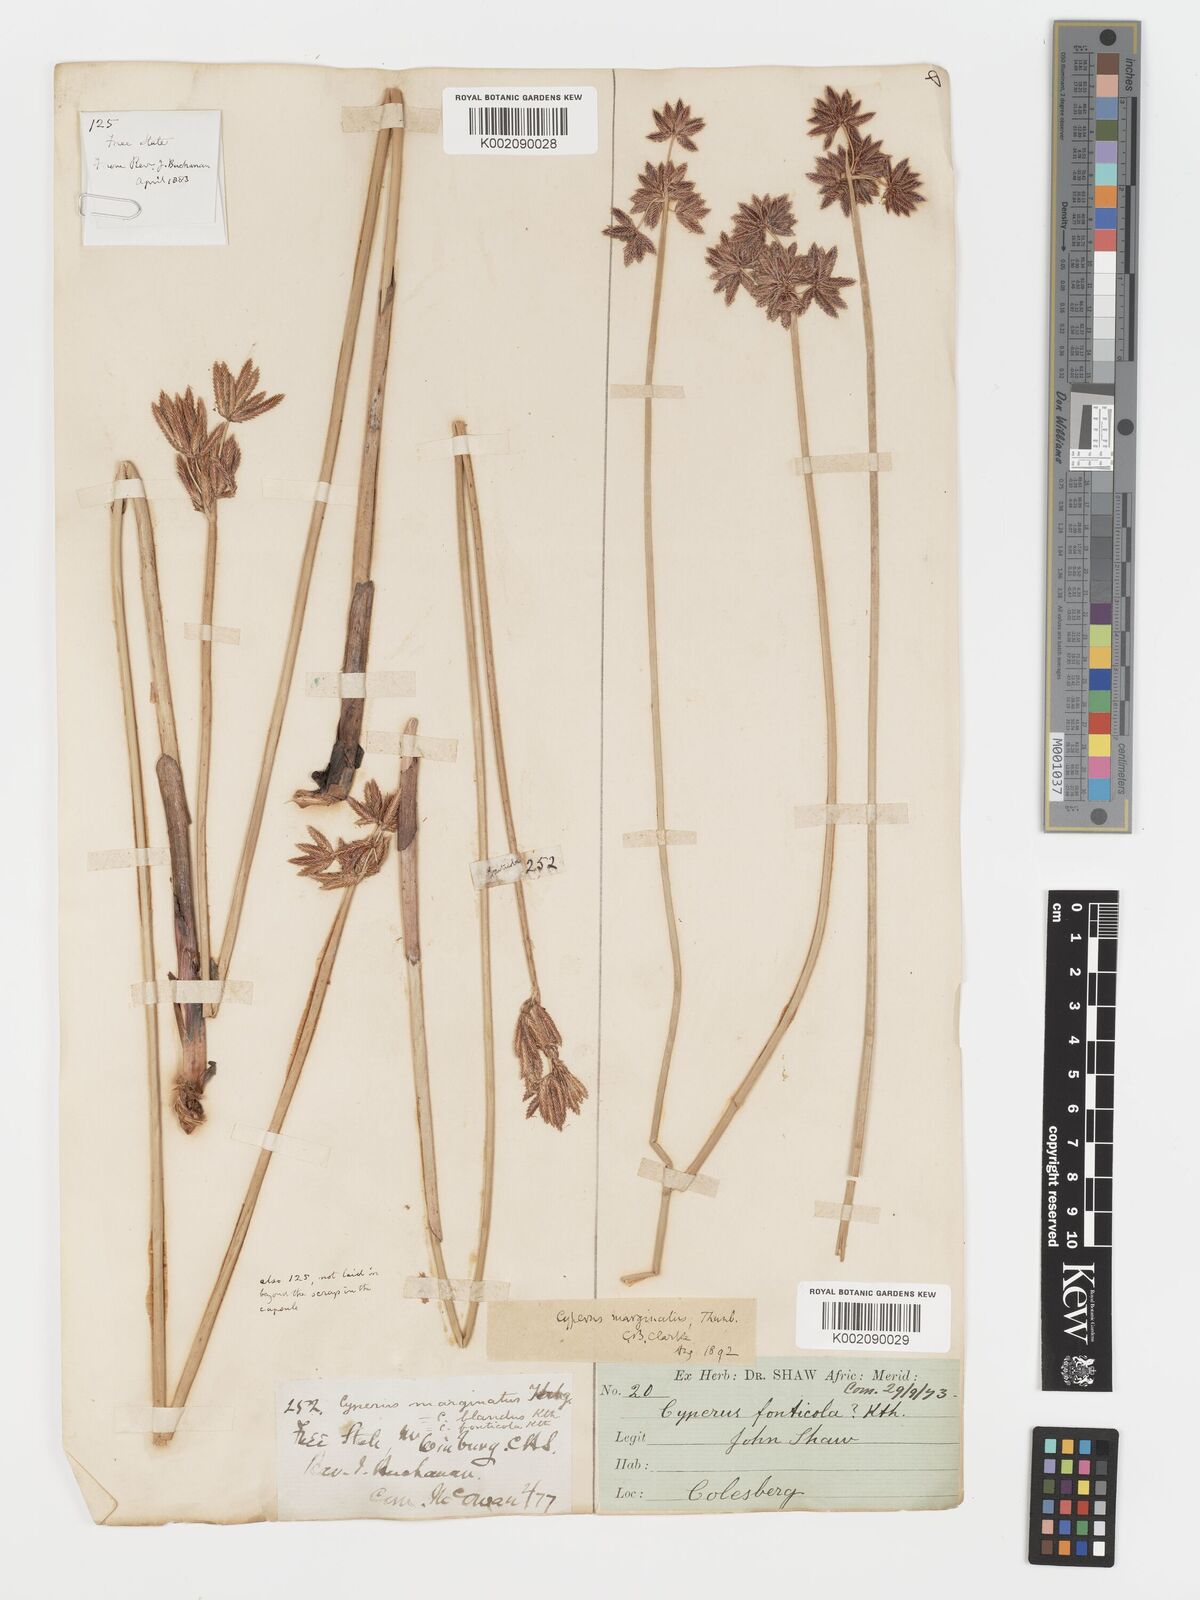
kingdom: Plantae
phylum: Tracheophyta
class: Liliopsida
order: Poales
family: Cyperaceae
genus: Cyperus
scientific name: Cyperus marginatus
